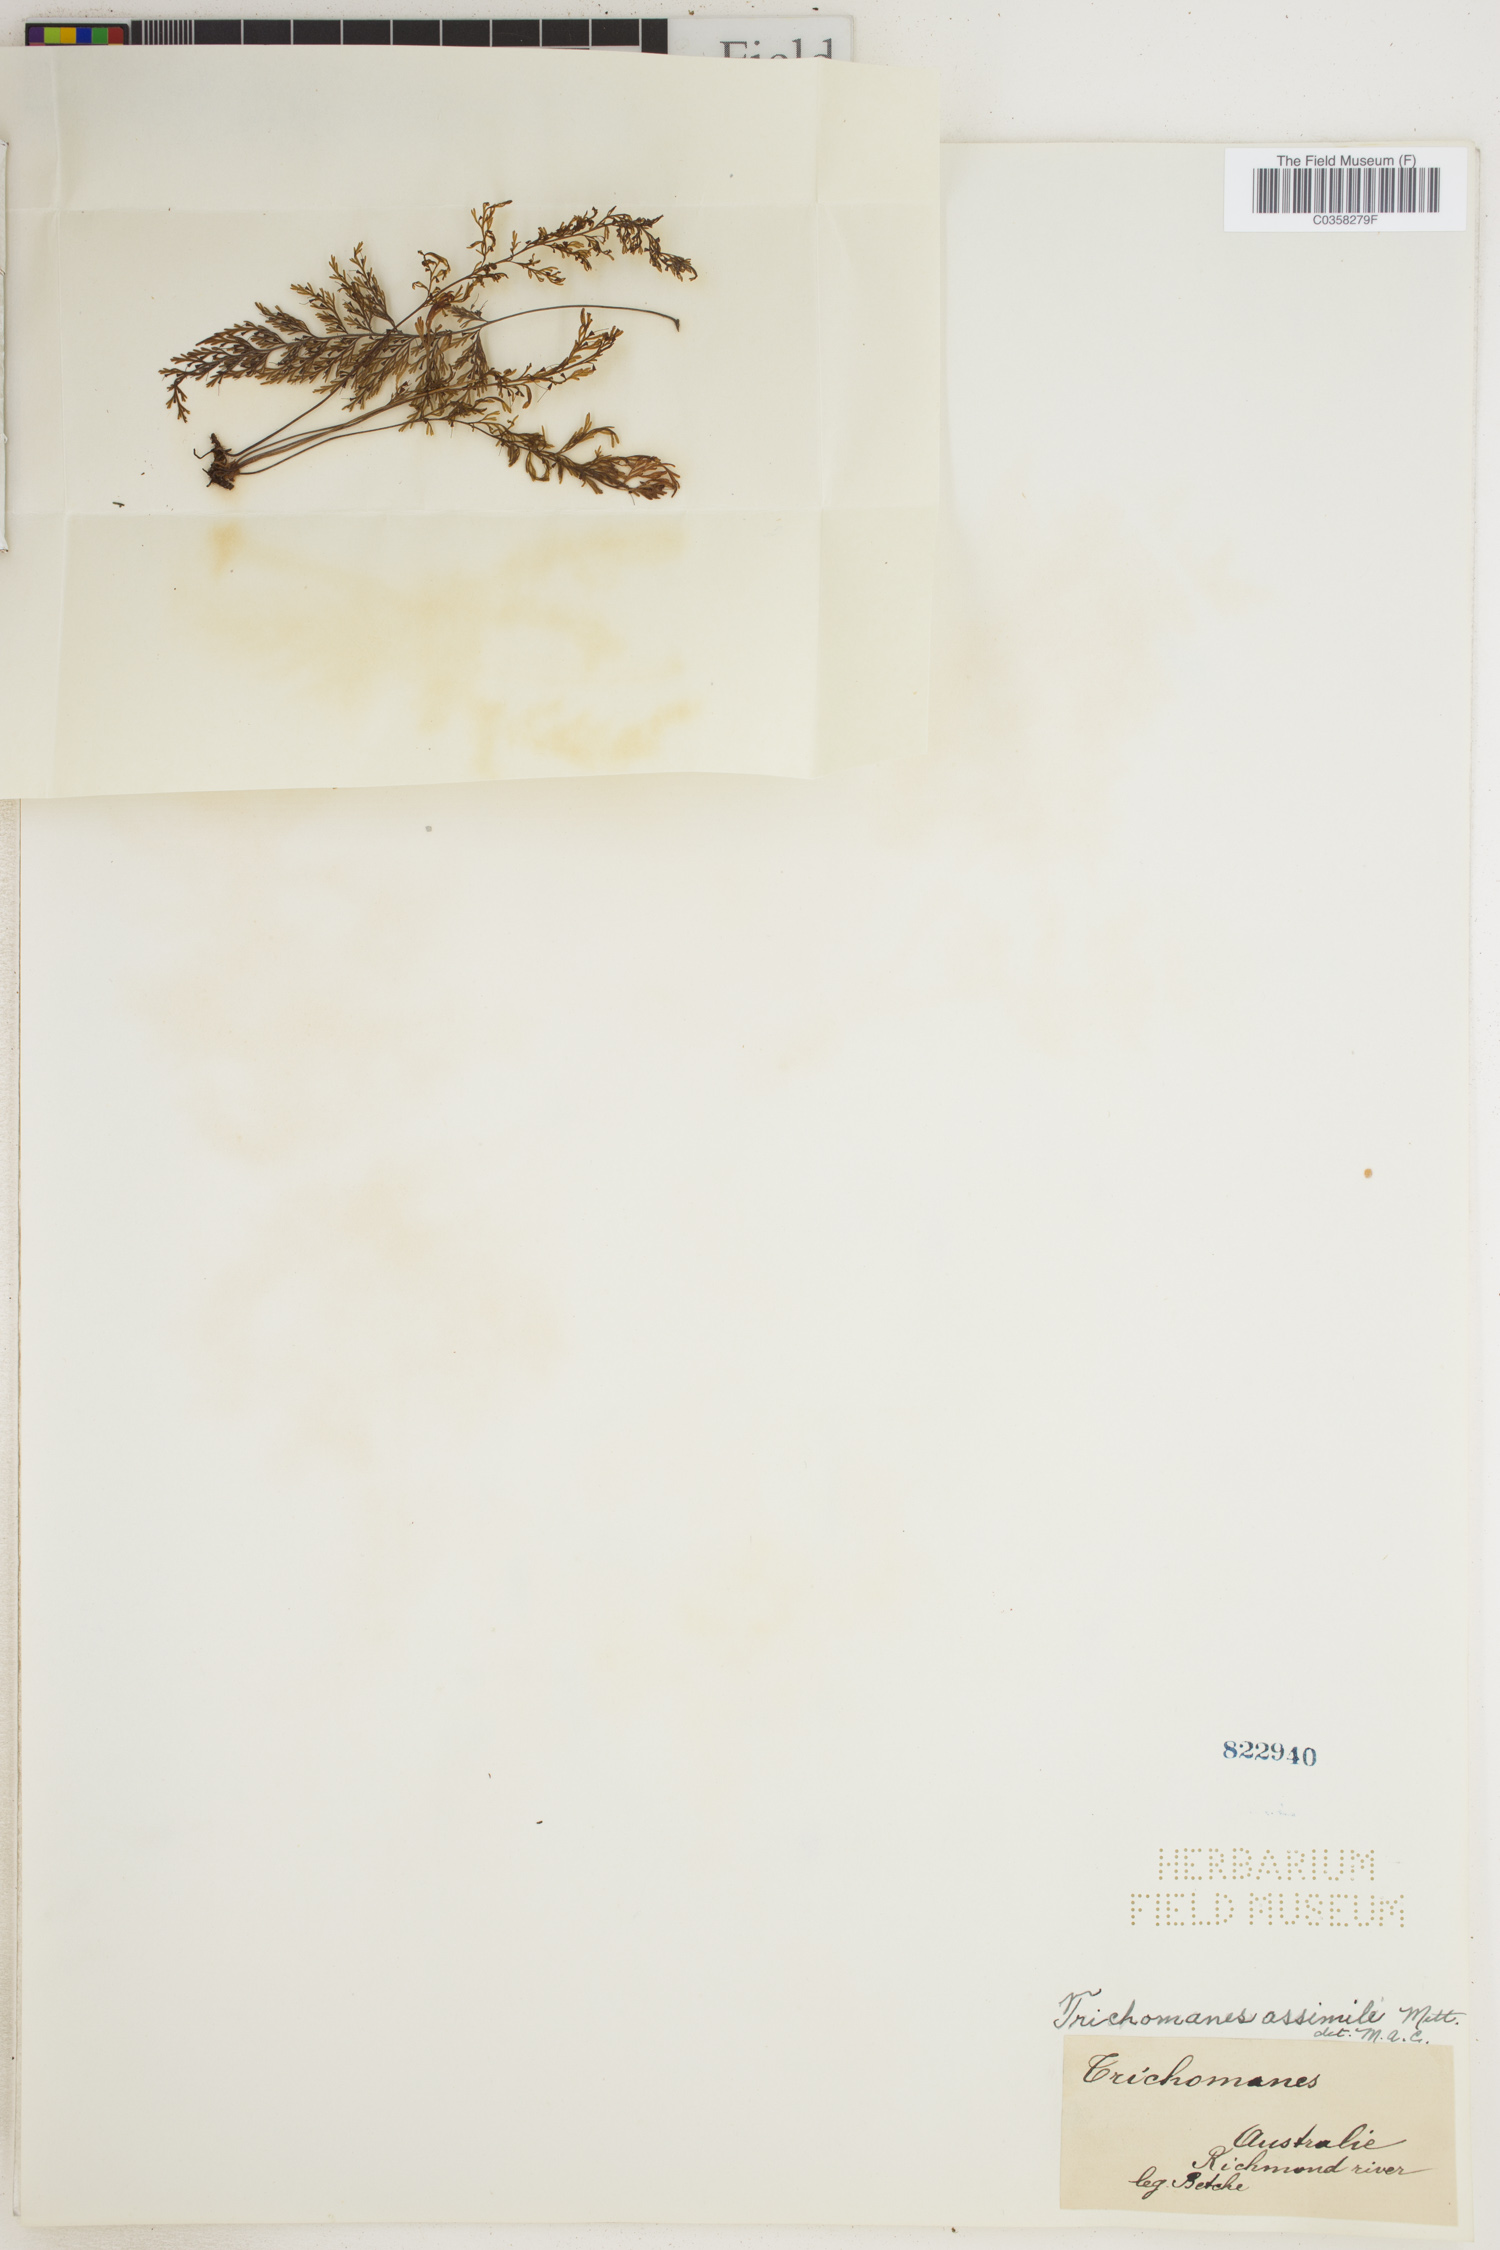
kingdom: Plantae
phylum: Tracheophyta
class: Polypodiopsida
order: Hymenophyllales
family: Hymenophyllaceae
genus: Crepidomanes
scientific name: Crepidomanes assimilis
